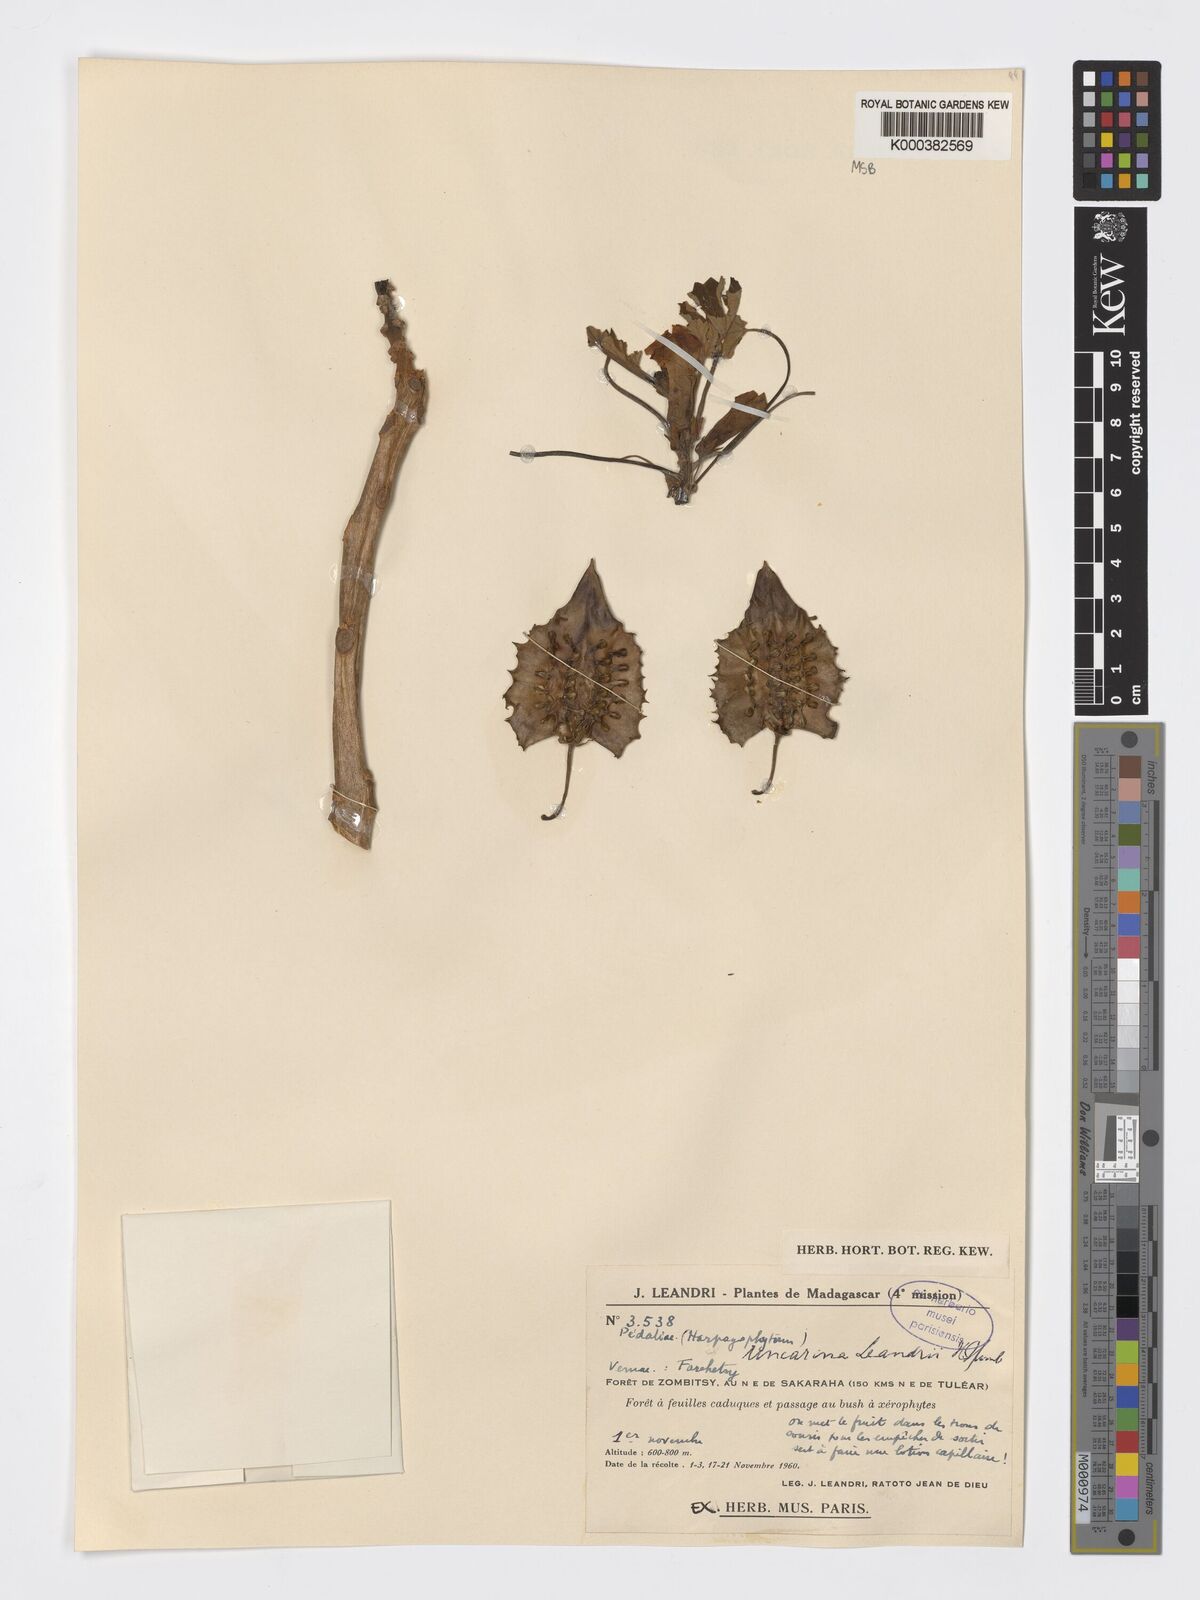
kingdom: Plantae
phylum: Tracheophyta
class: Magnoliopsida
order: Lamiales
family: Pedaliaceae
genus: Uncarina
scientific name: Uncarina leandrii
